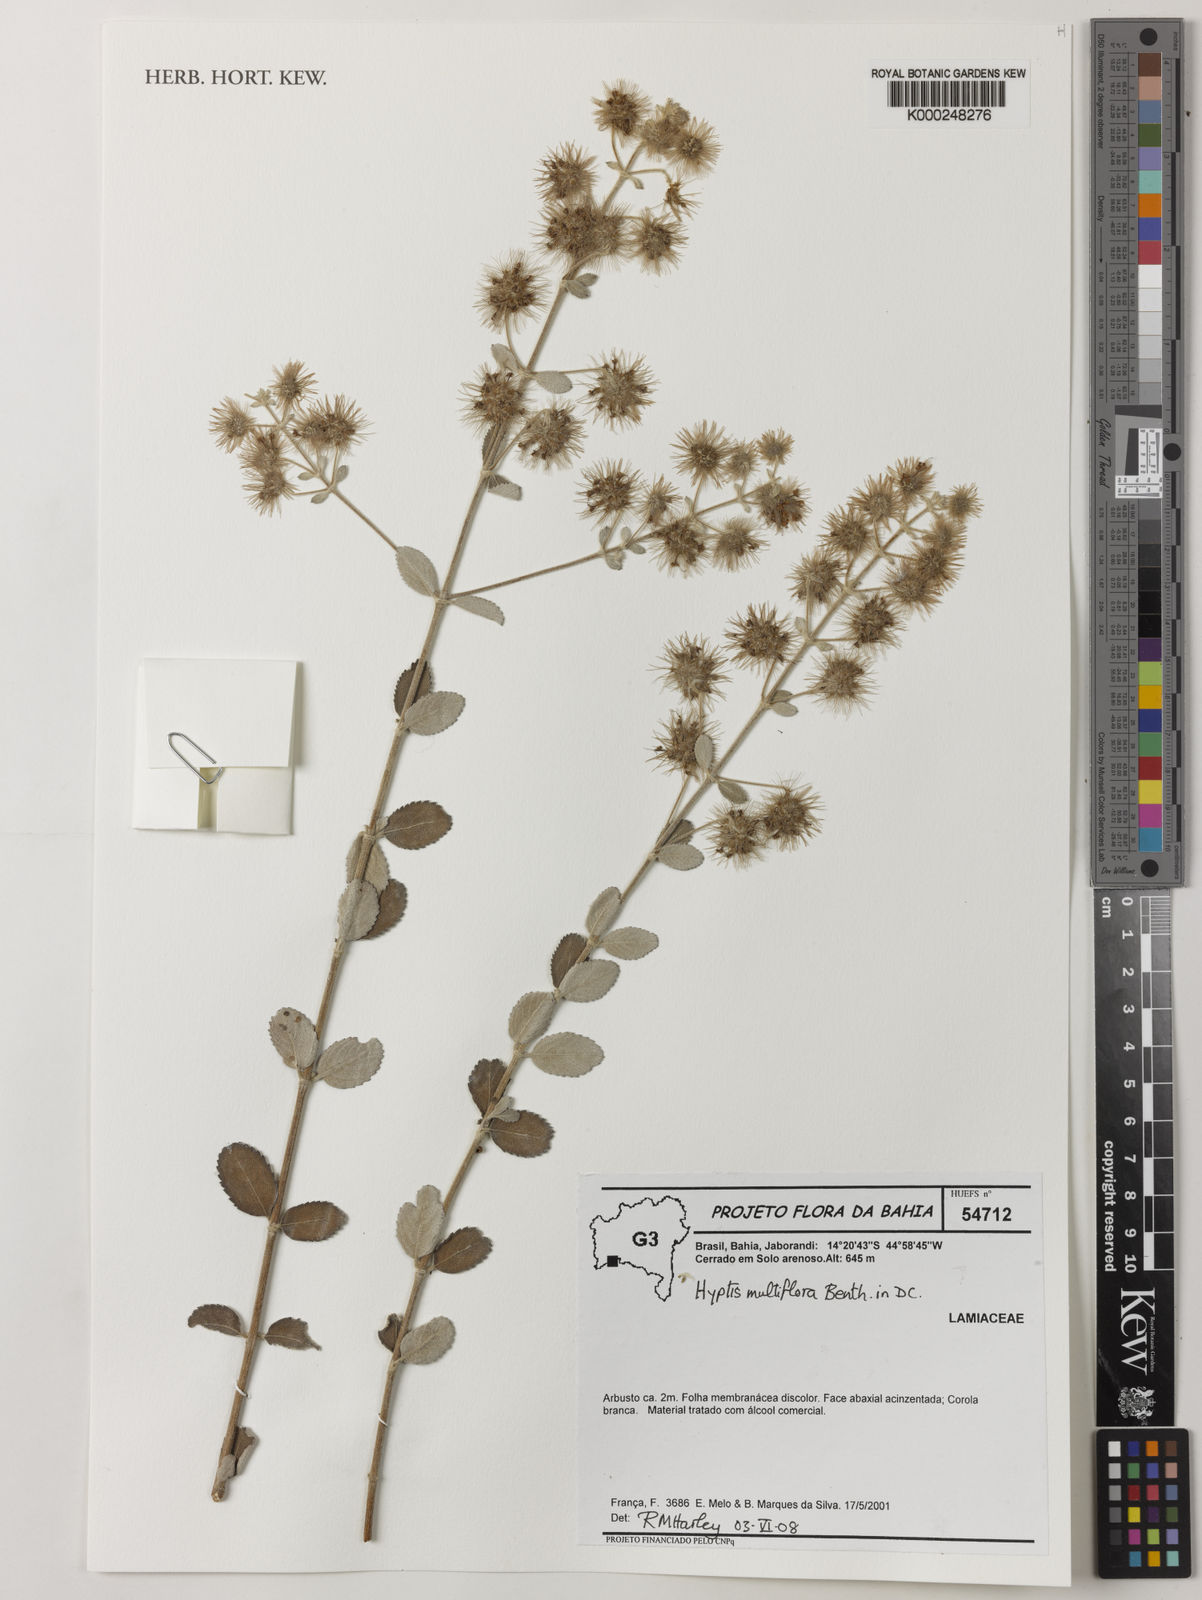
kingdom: Plantae
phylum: Tracheophyta
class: Magnoliopsida
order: Lamiales
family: Lamiaceae
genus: Medusantha
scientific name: Medusantha multiflora
